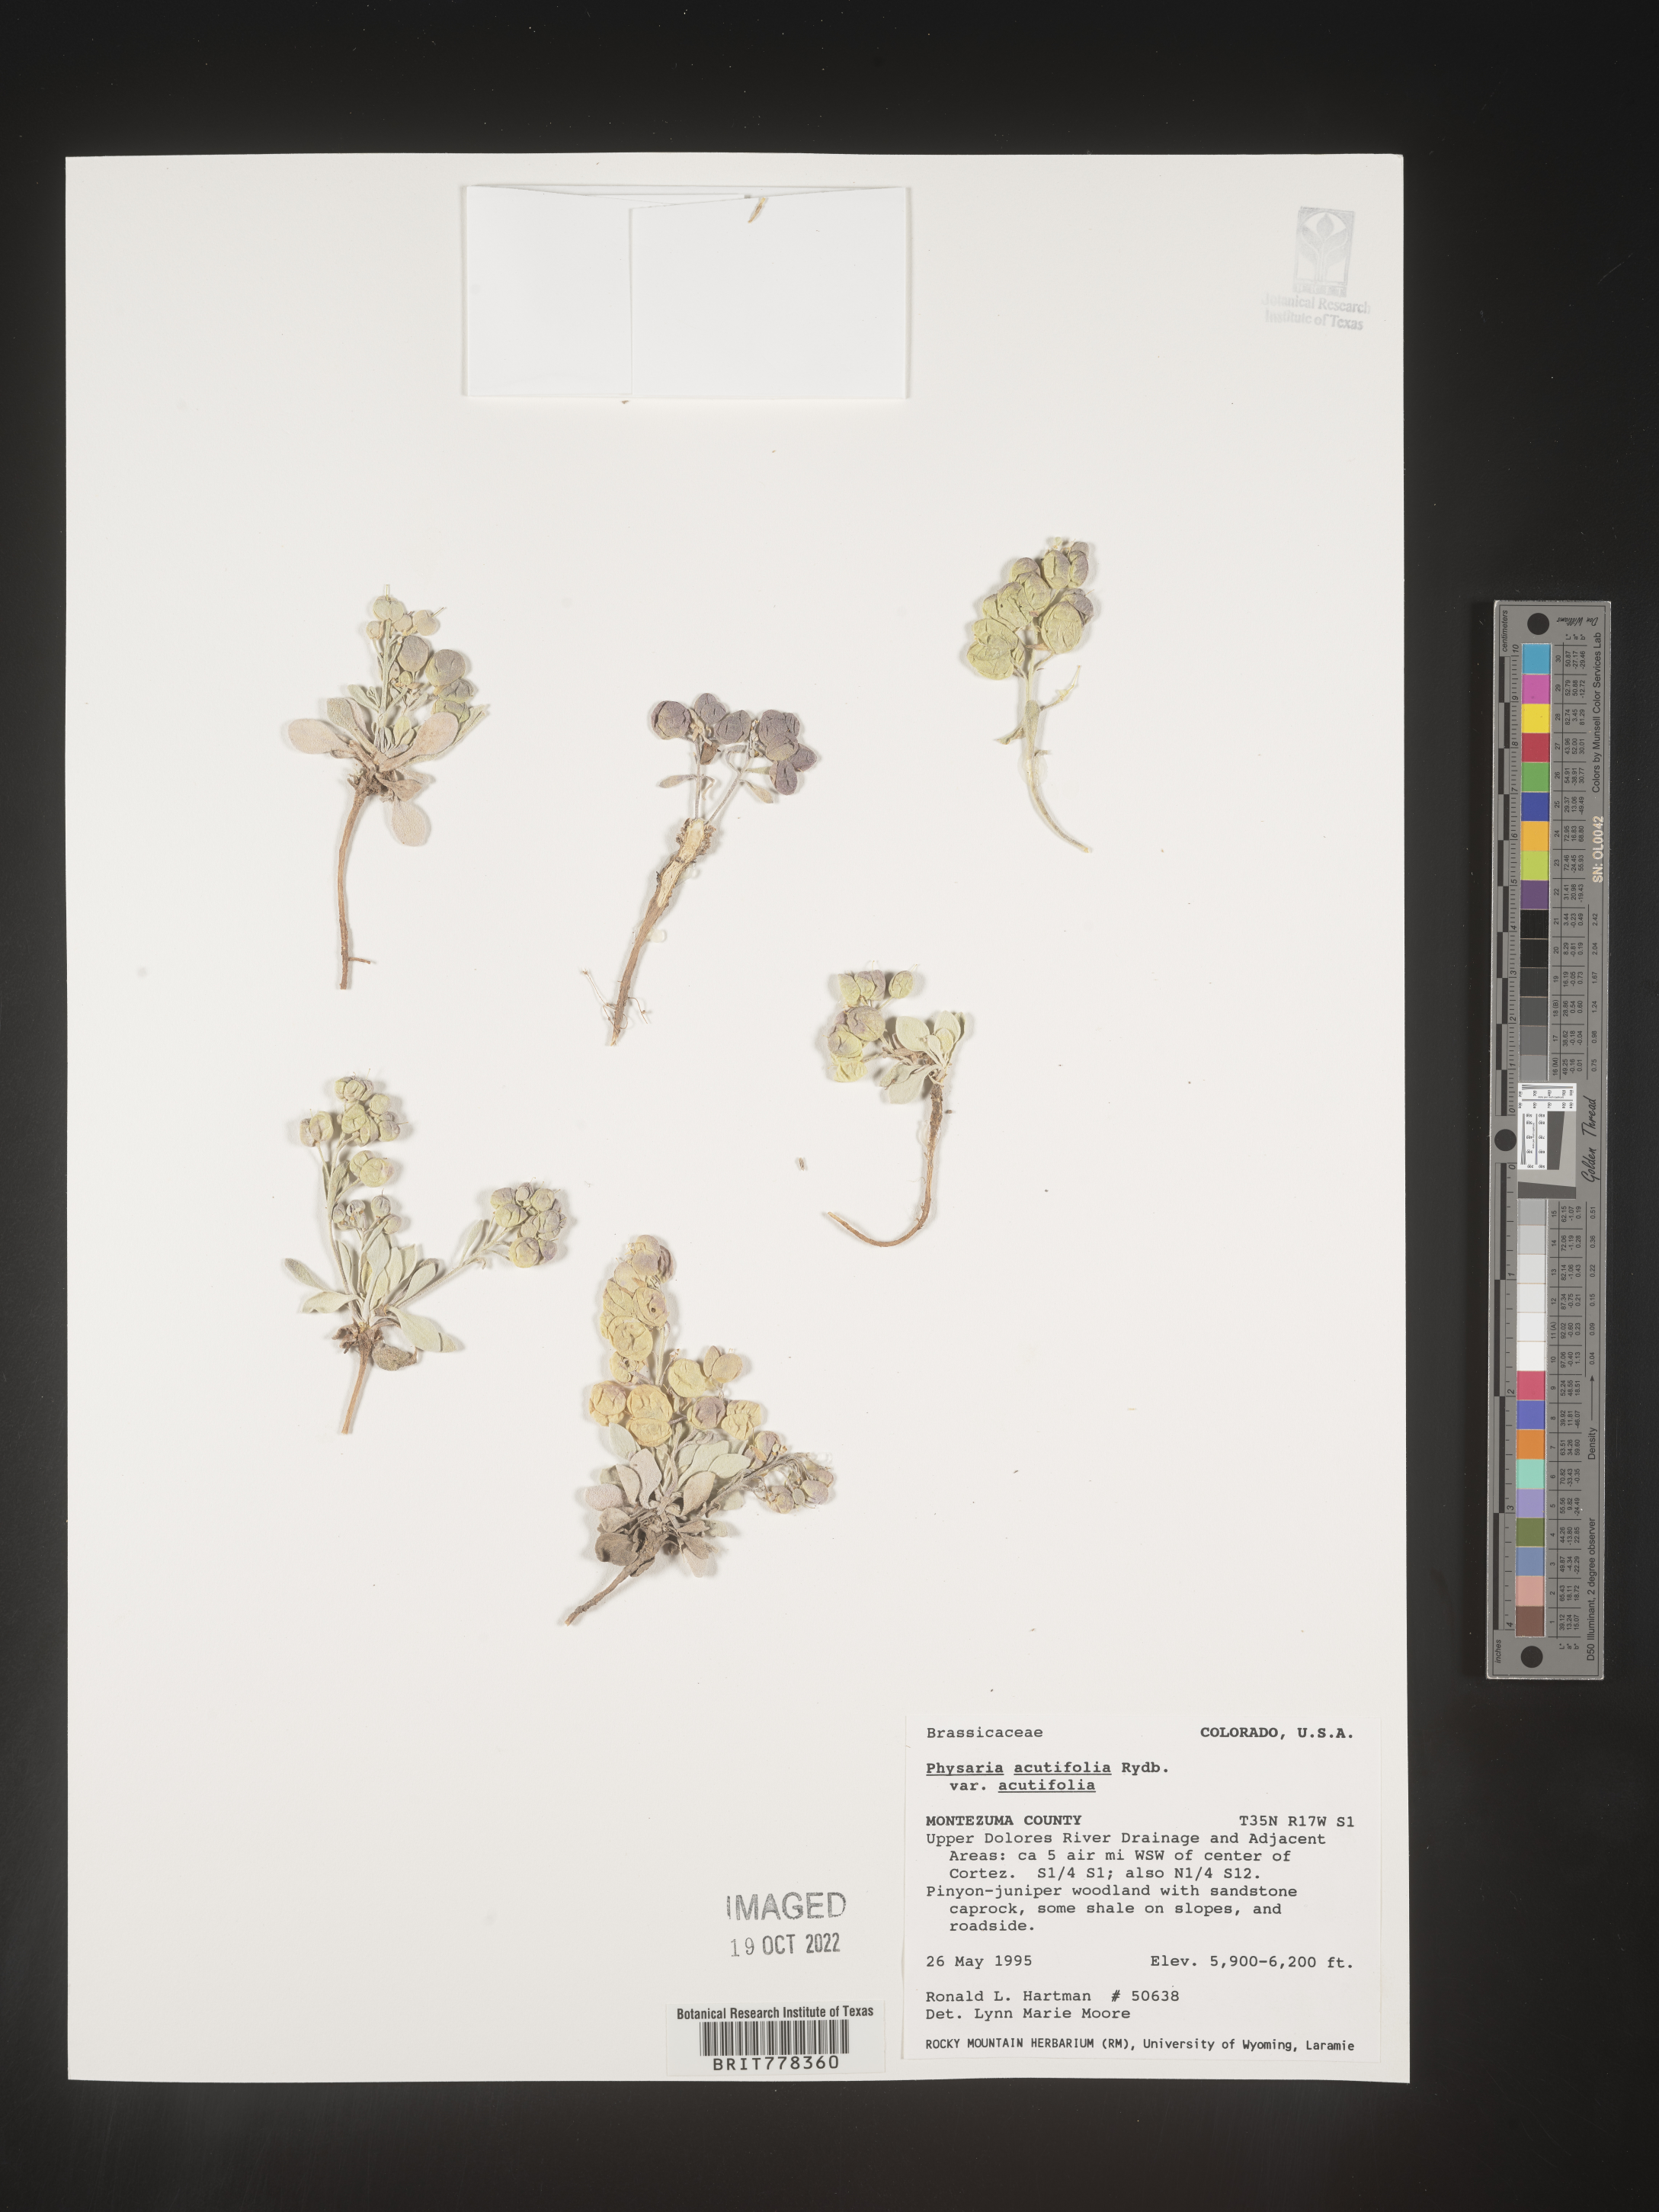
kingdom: Plantae
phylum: Tracheophyta
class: Magnoliopsida
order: Brassicales
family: Brassicaceae
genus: Physaria
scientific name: Physaria
